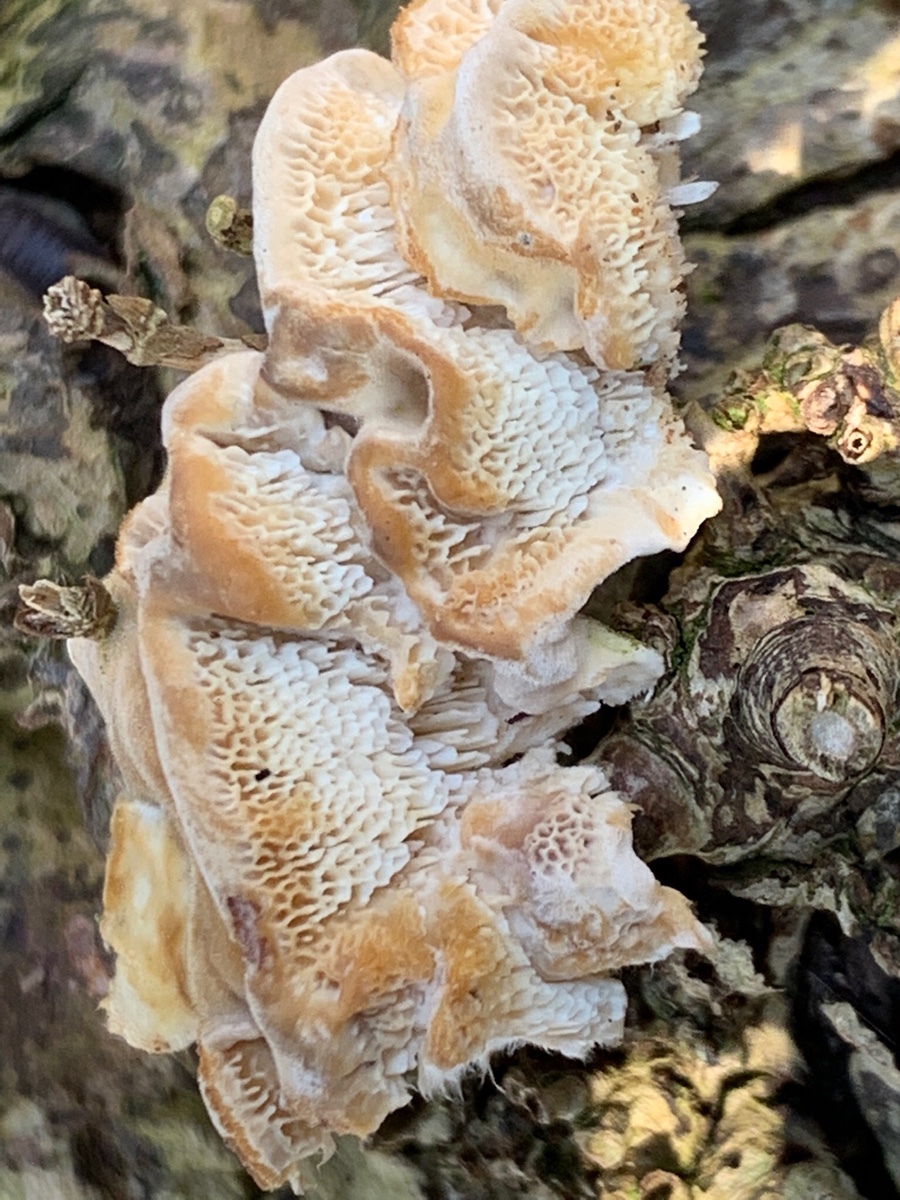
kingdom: Fungi
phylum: Basidiomycota
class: Agaricomycetes
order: Polyporales
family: Polyporaceae
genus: Trametes
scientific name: Trametes
